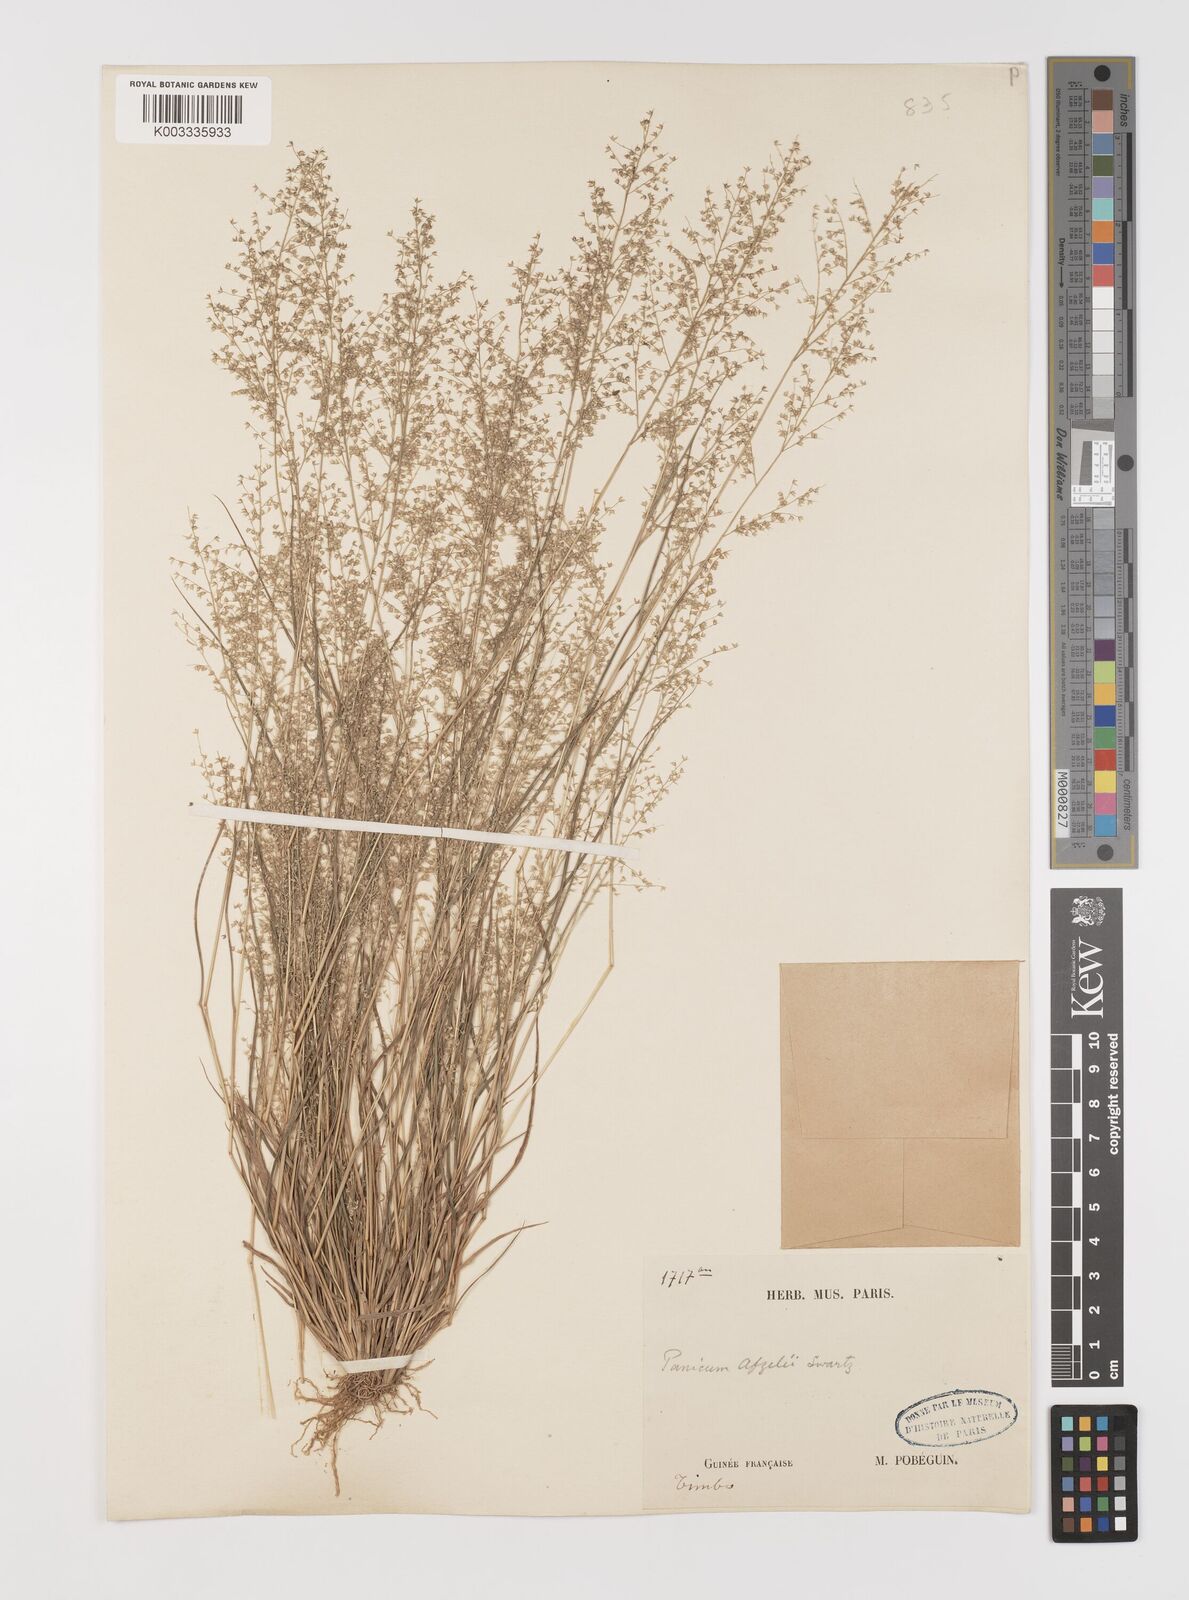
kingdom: Plantae
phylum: Tracheophyta
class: Liliopsida
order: Poales
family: Poaceae
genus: Panicum
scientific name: Panicum afzelii
